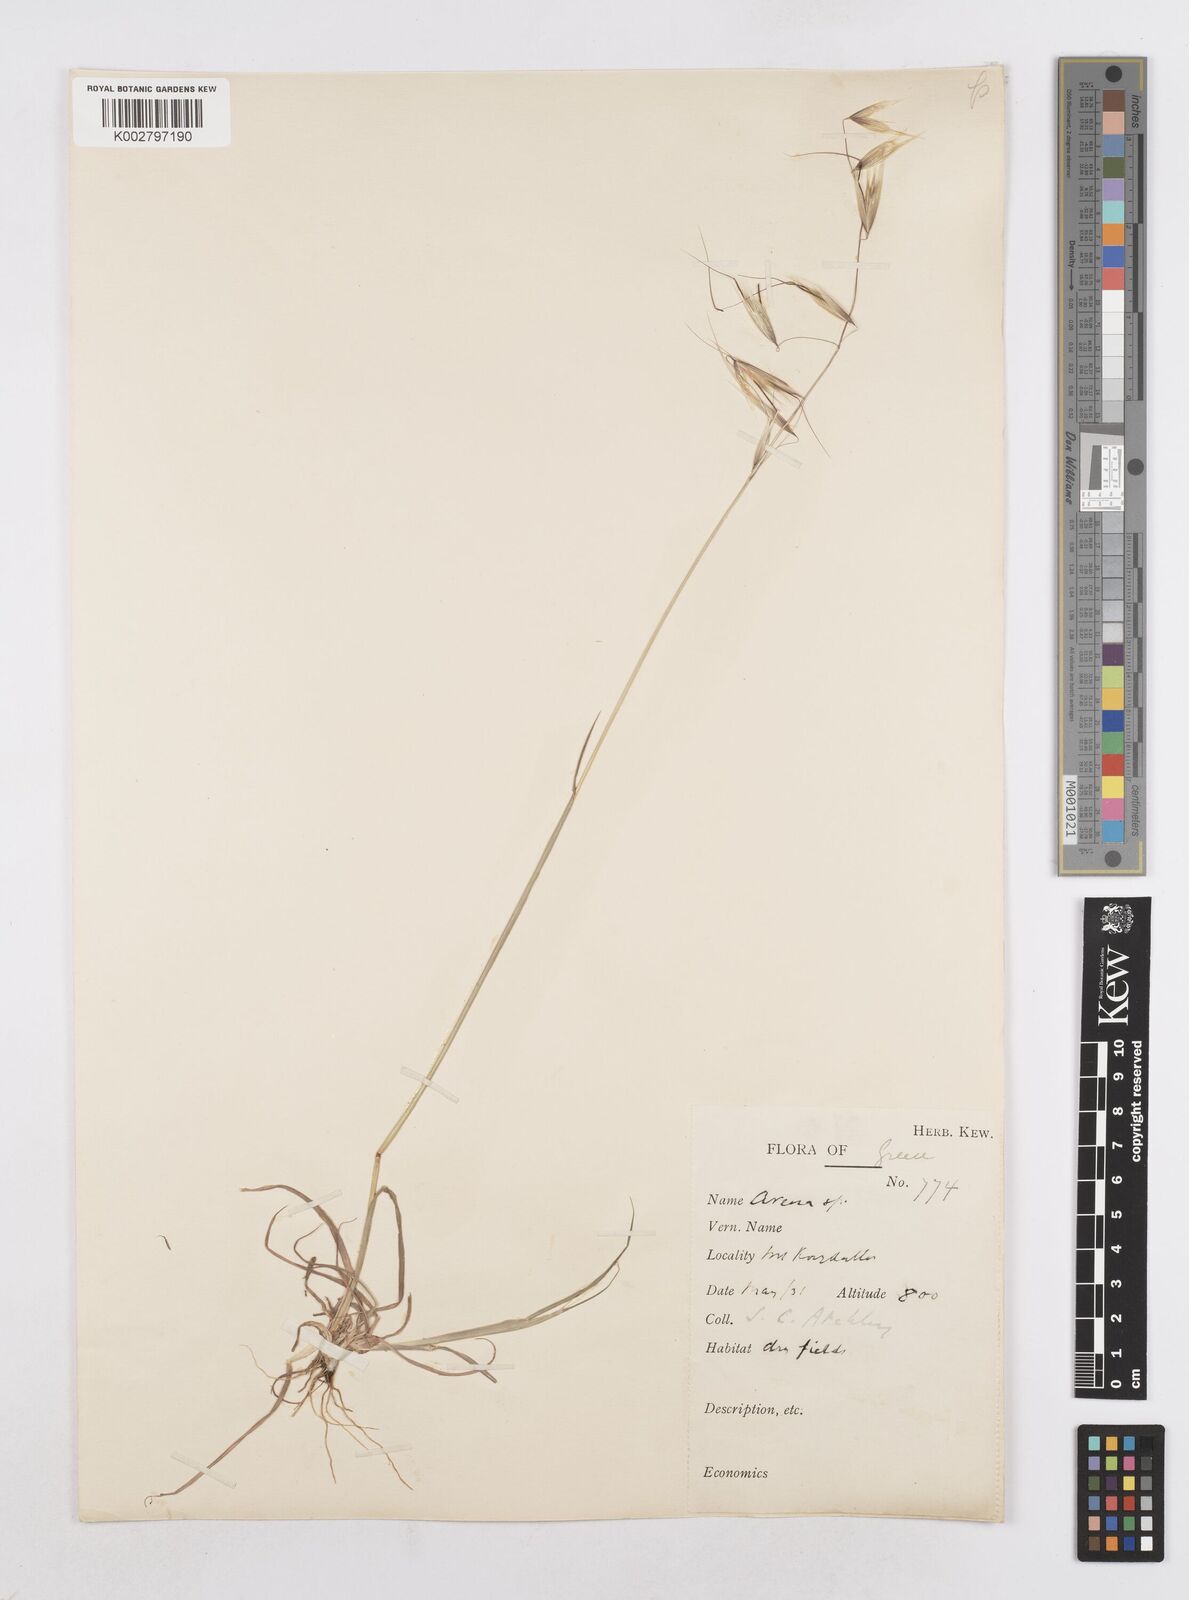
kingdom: Plantae
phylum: Tracheophyta
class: Liliopsida
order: Poales
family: Poaceae
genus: Avena
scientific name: Avena
